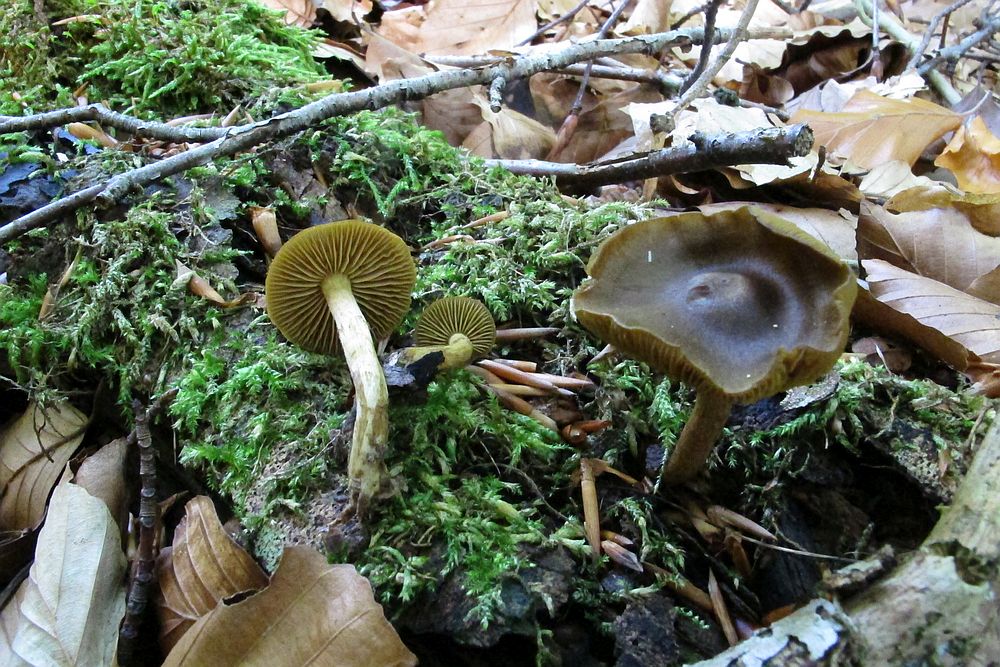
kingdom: Fungi
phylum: Basidiomycota
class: Agaricomycetes
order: Agaricales
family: Cortinariaceae
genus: Cortinarius
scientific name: Cortinarius olivaceofuscus
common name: olivenbrun slørhat
